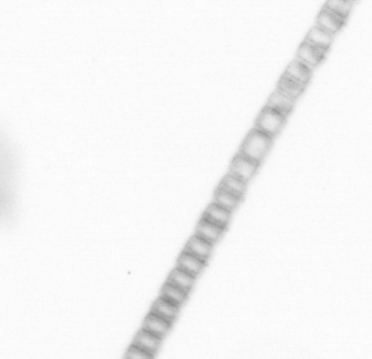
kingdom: Chromista
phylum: Ochrophyta
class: Bacillariophyceae
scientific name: Bacillariophyceae
